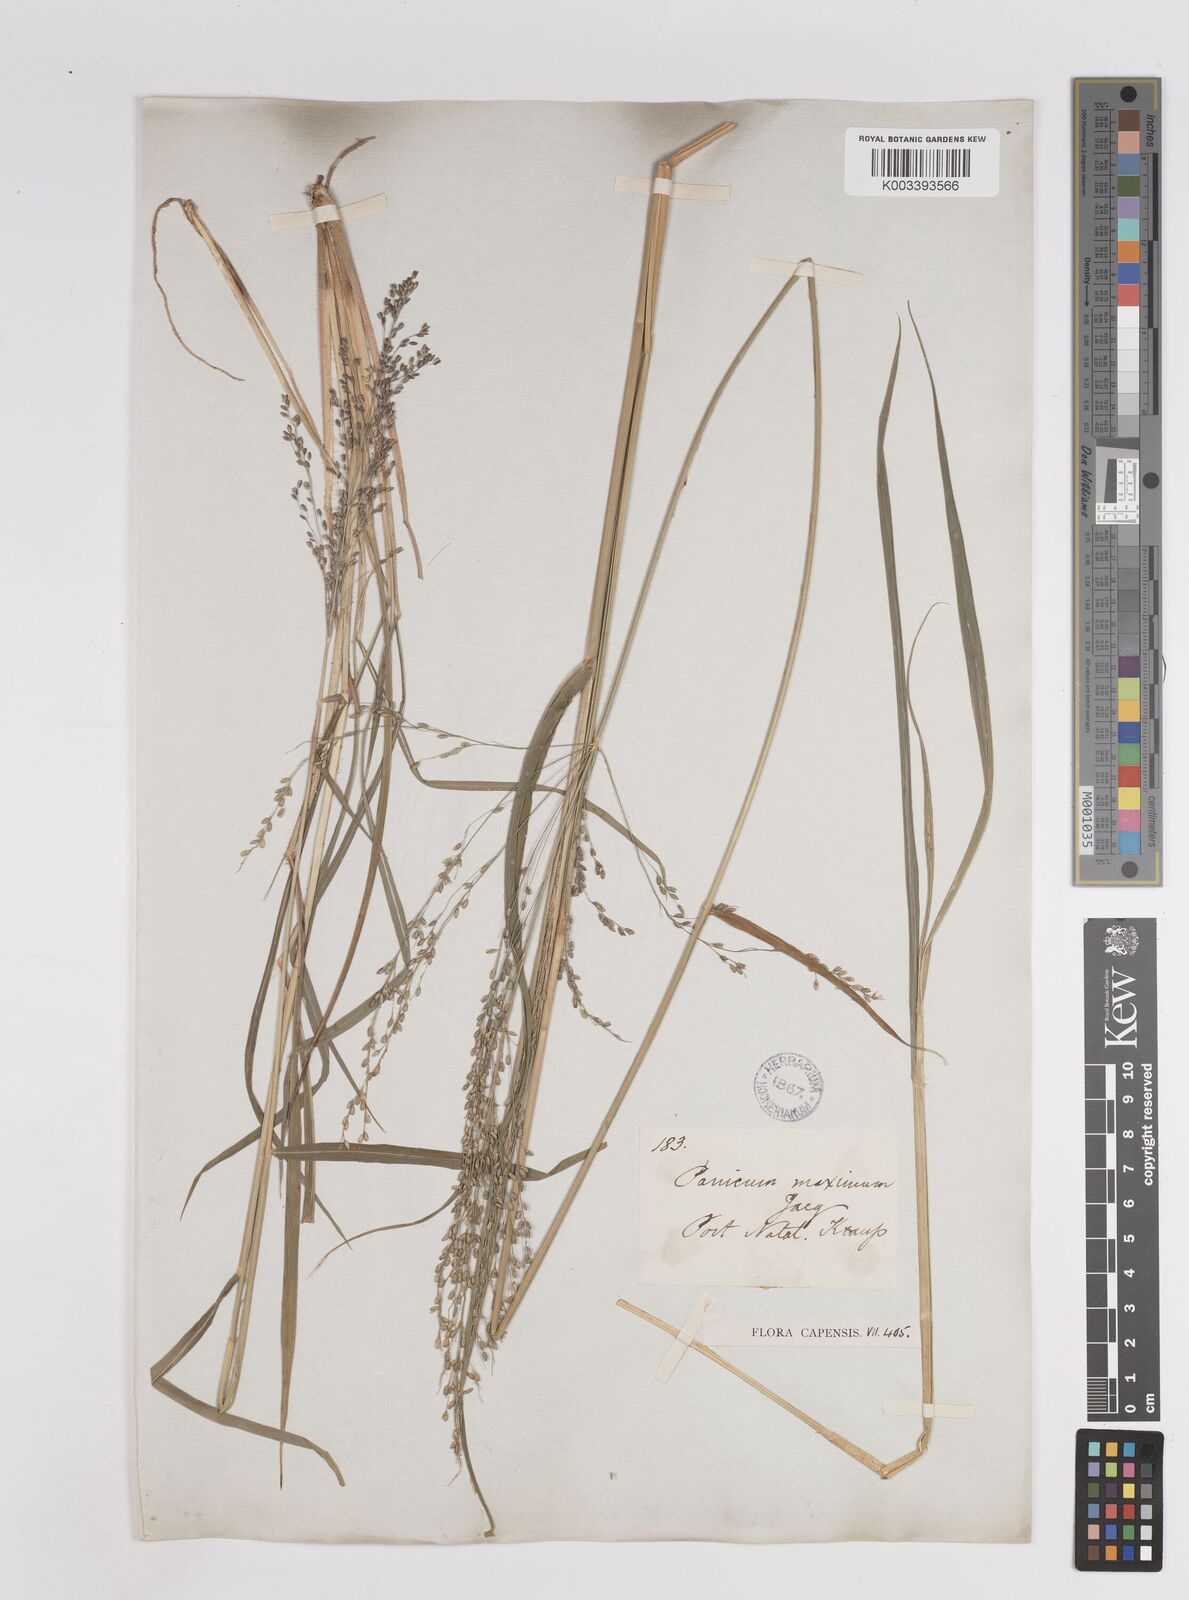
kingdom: Plantae
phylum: Tracheophyta
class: Liliopsida
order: Poales
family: Poaceae
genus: Megathyrsus
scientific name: Megathyrsus maximus
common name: Guineagrass
